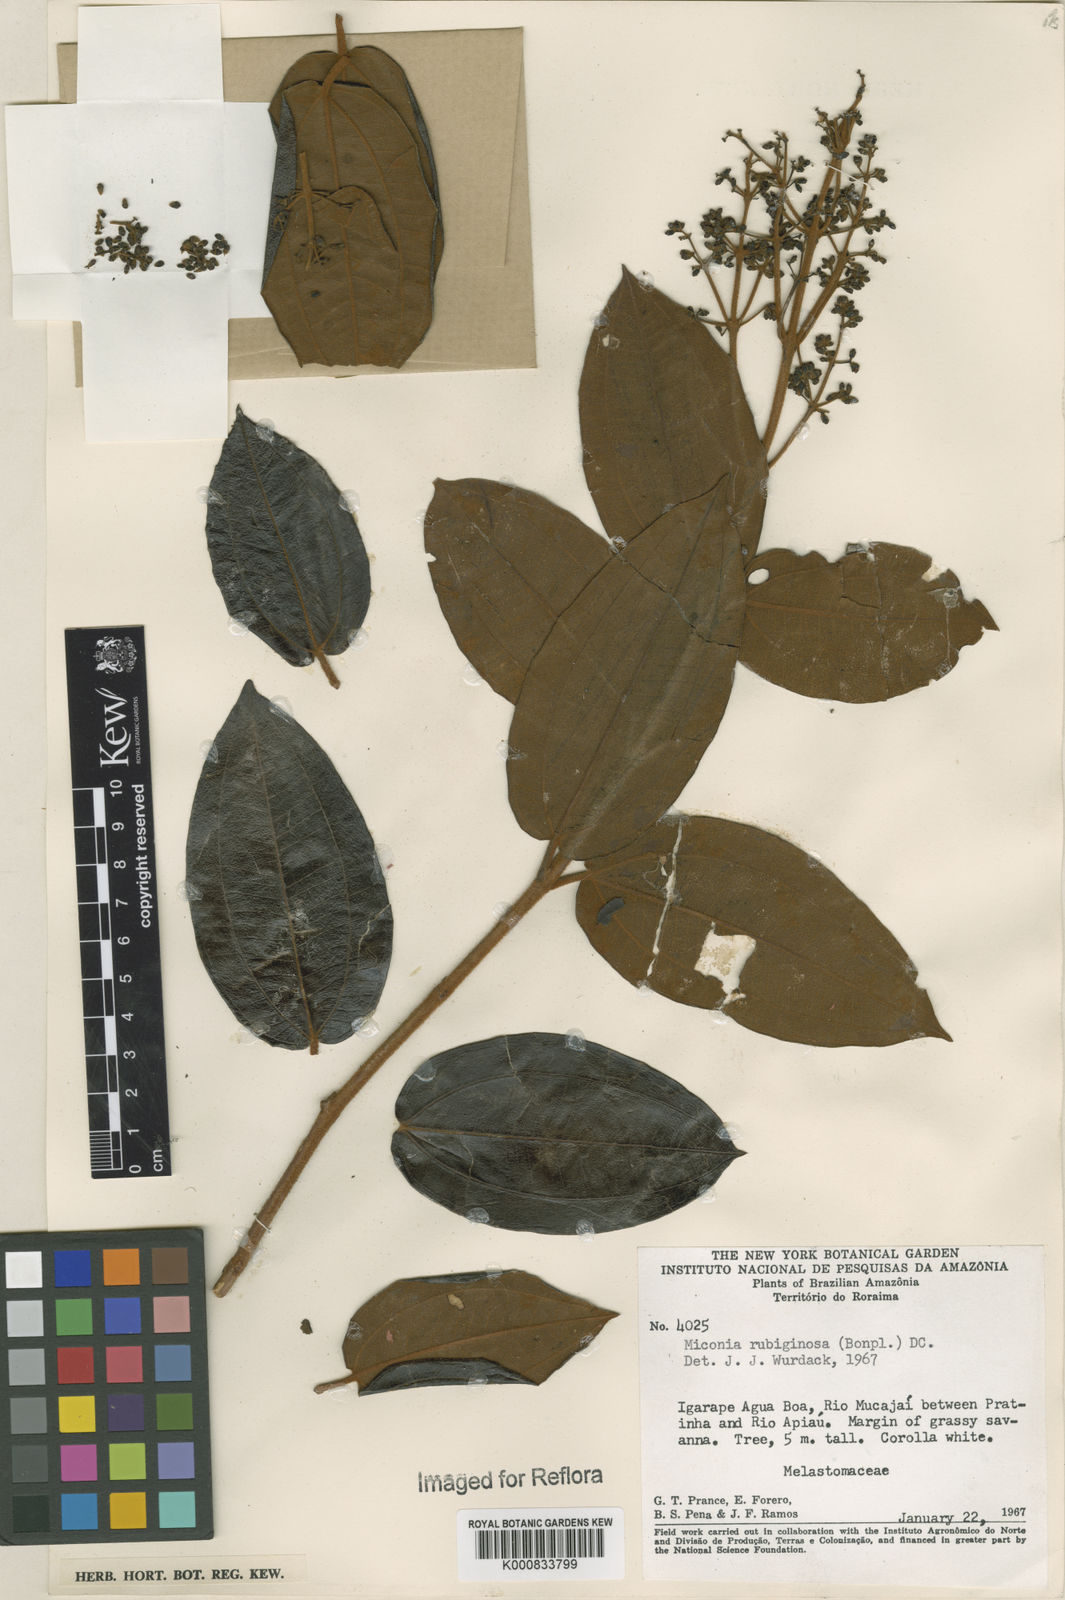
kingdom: Plantae
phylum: Tracheophyta
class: Magnoliopsida
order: Myrtales
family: Melastomataceae
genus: Miconia
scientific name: Miconia rubiginosa
